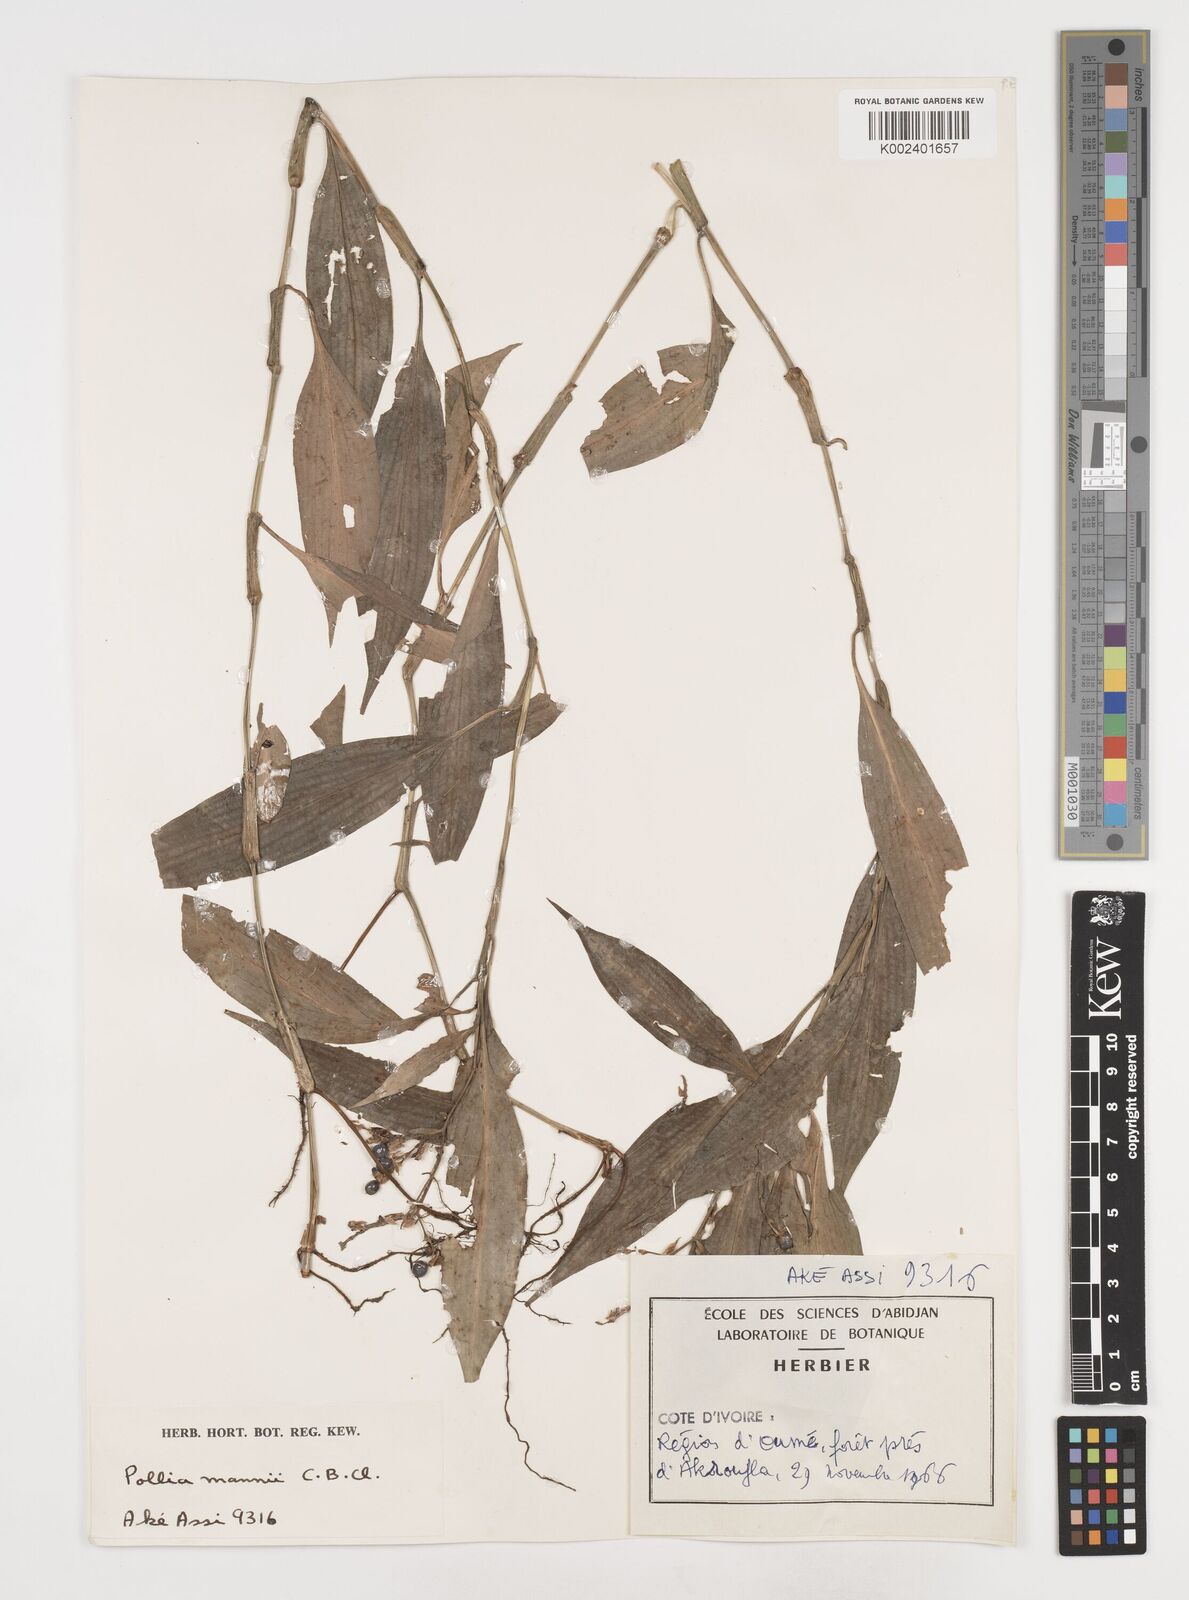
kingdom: Plantae
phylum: Tracheophyta
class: Liliopsida
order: Commelinales
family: Commelinaceae
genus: Pollia
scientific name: Pollia mannii
